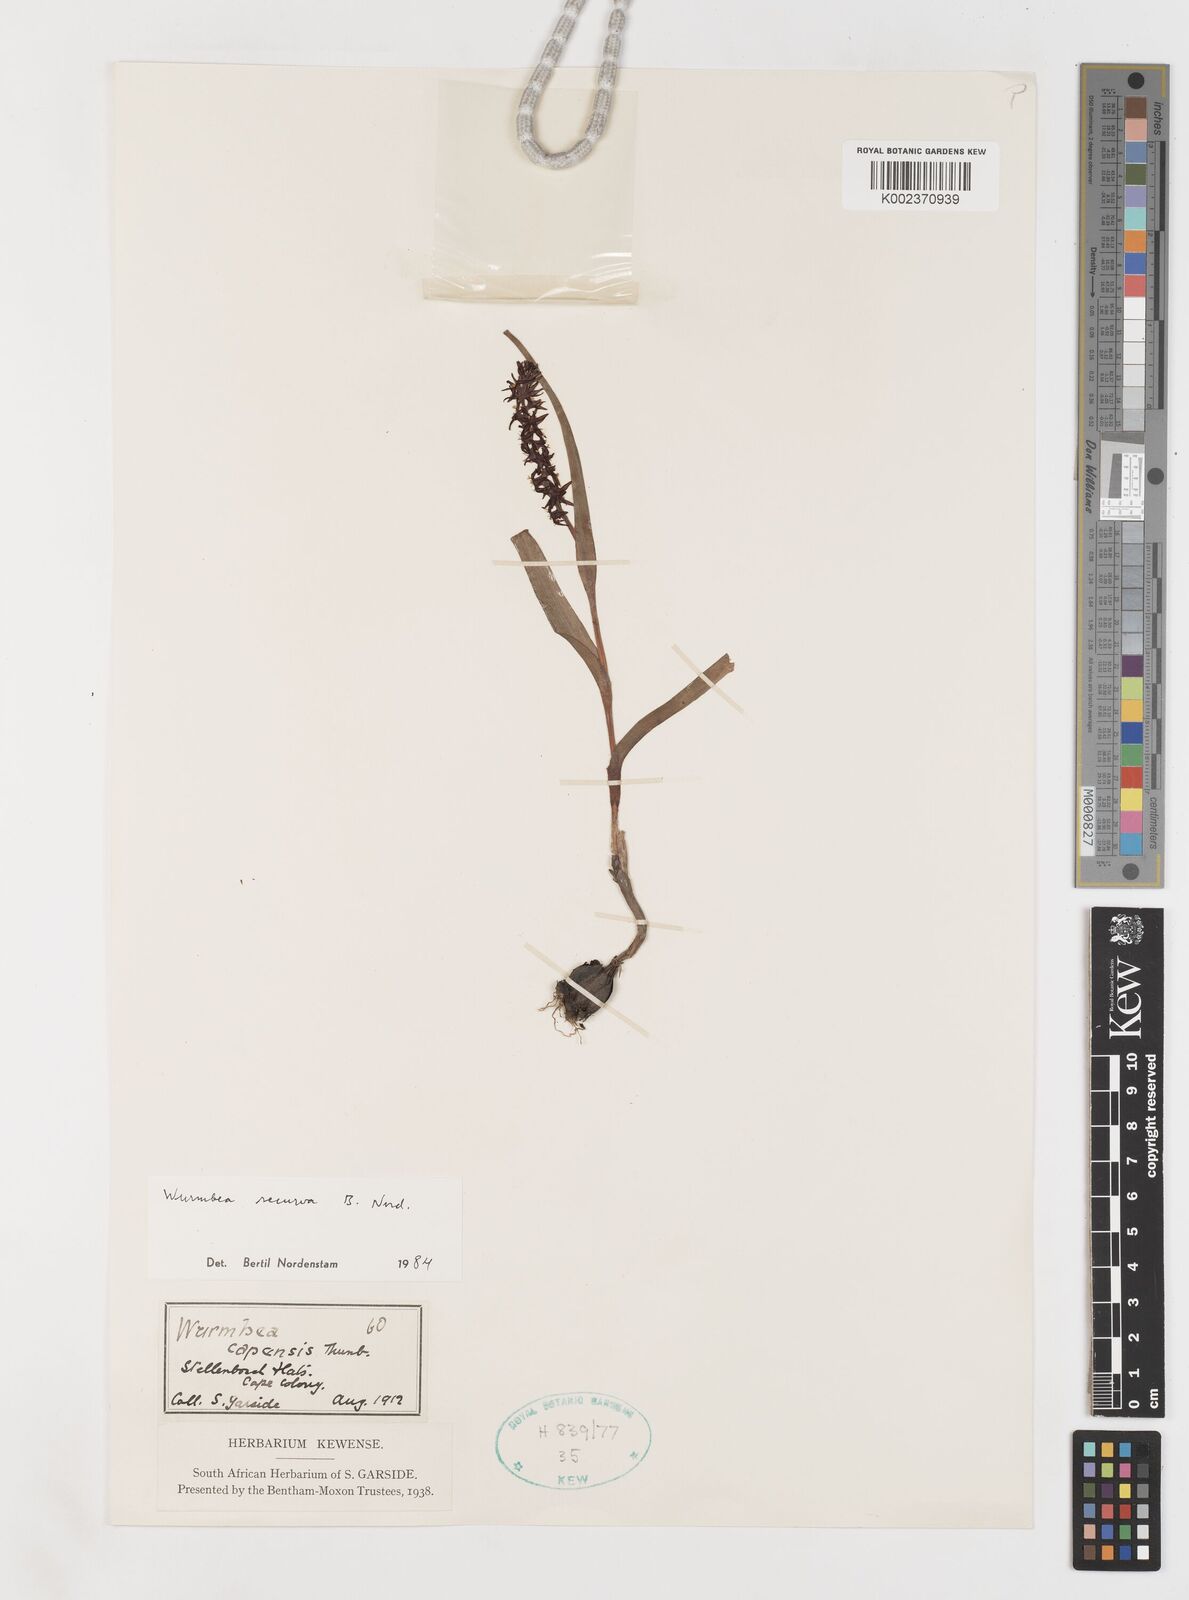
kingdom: Plantae
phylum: Tracheophyta
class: Liliopsida
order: Liliales
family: Colchicaceae
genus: Wurmbea
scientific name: Wurmbea recurva
